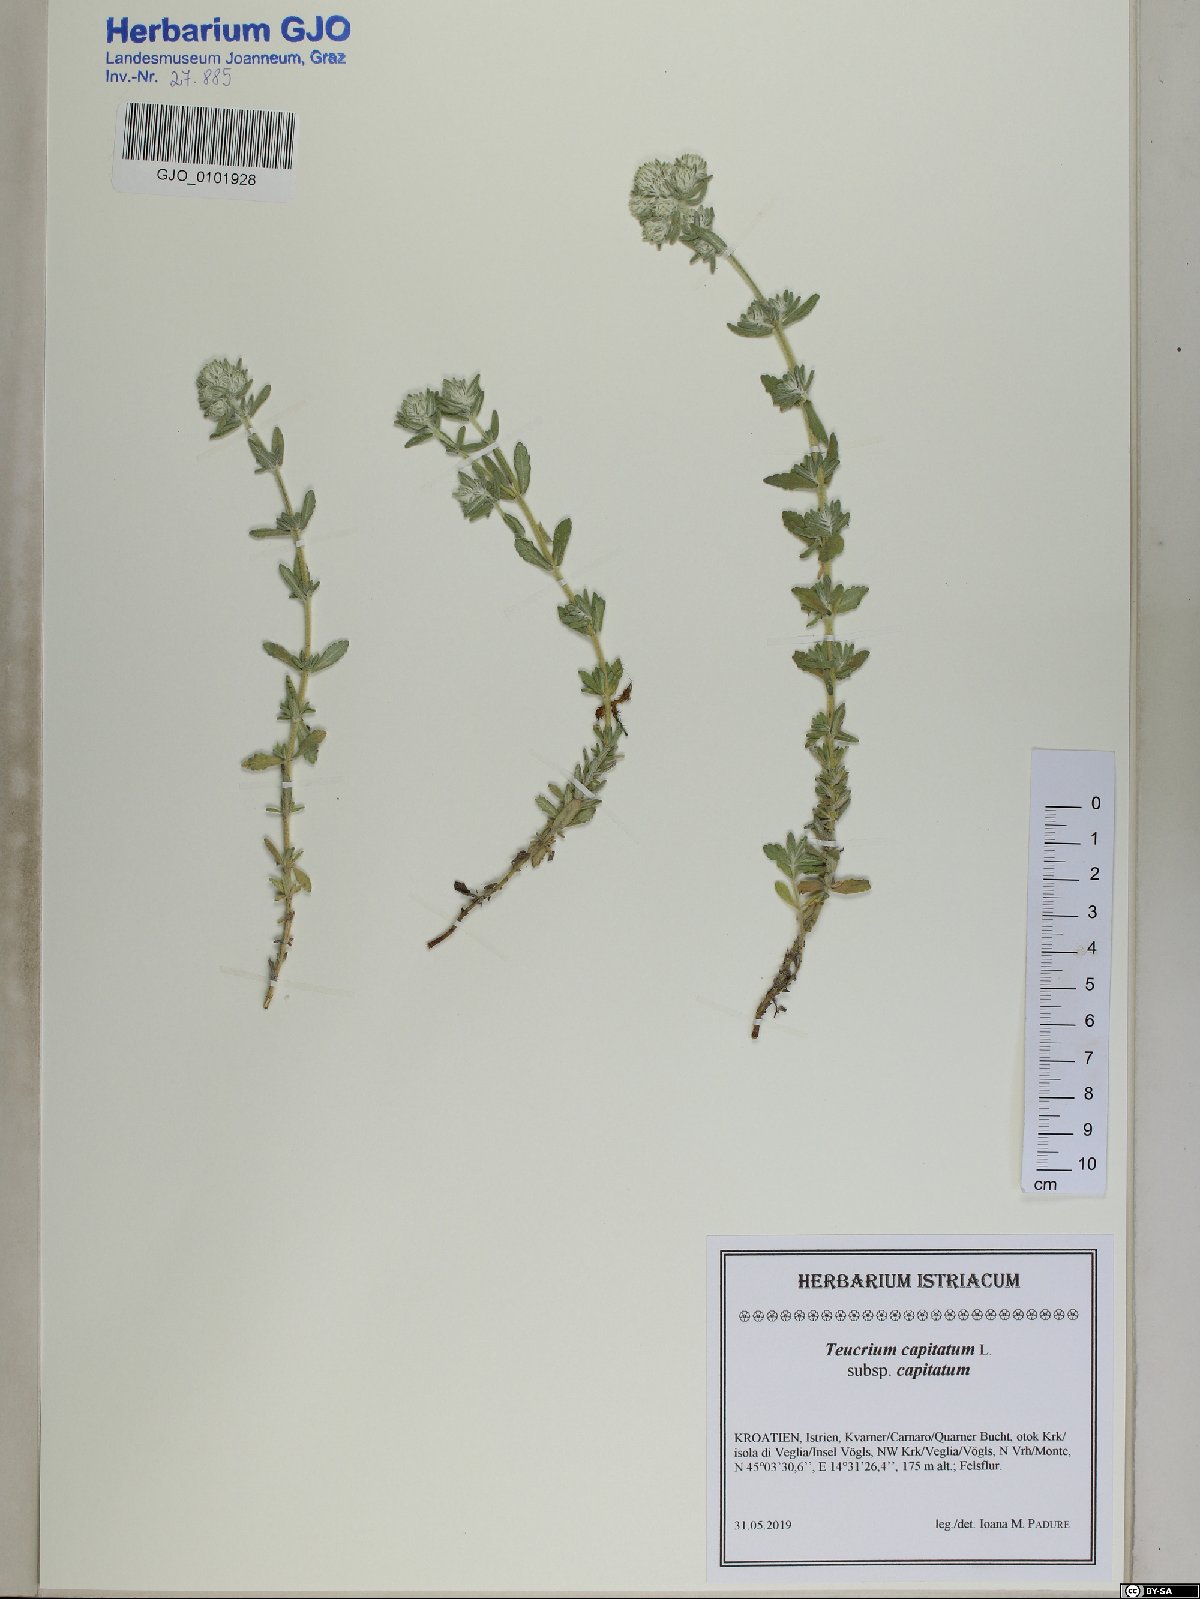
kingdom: Plantae
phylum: Tracheophyta
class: Magnoliopsida
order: Lamiales
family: Lamiaceae
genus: Teucrium
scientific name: Teucrium capitatum
